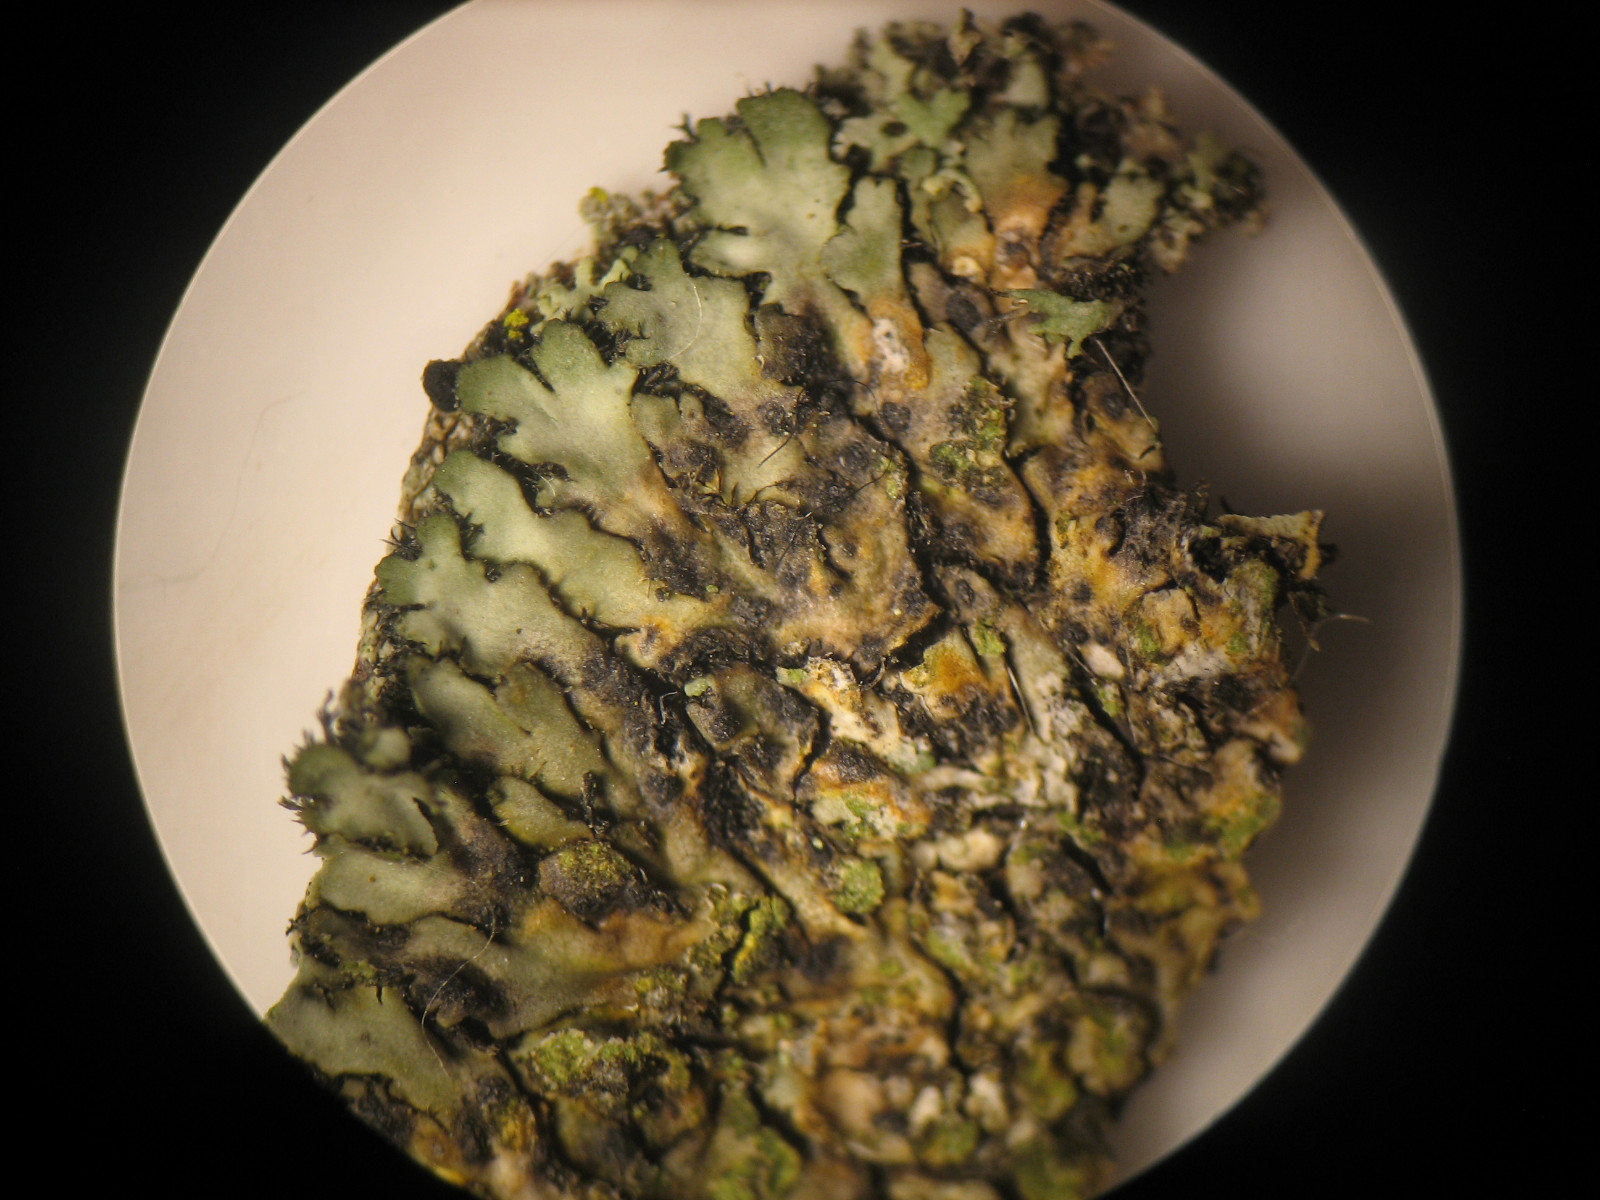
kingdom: Fungi
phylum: Ascomycota
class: Arthoniomycetes
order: Arthoniales
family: Arthoniaceae
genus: Bryostigma
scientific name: Bryostigma phaeophysciae
